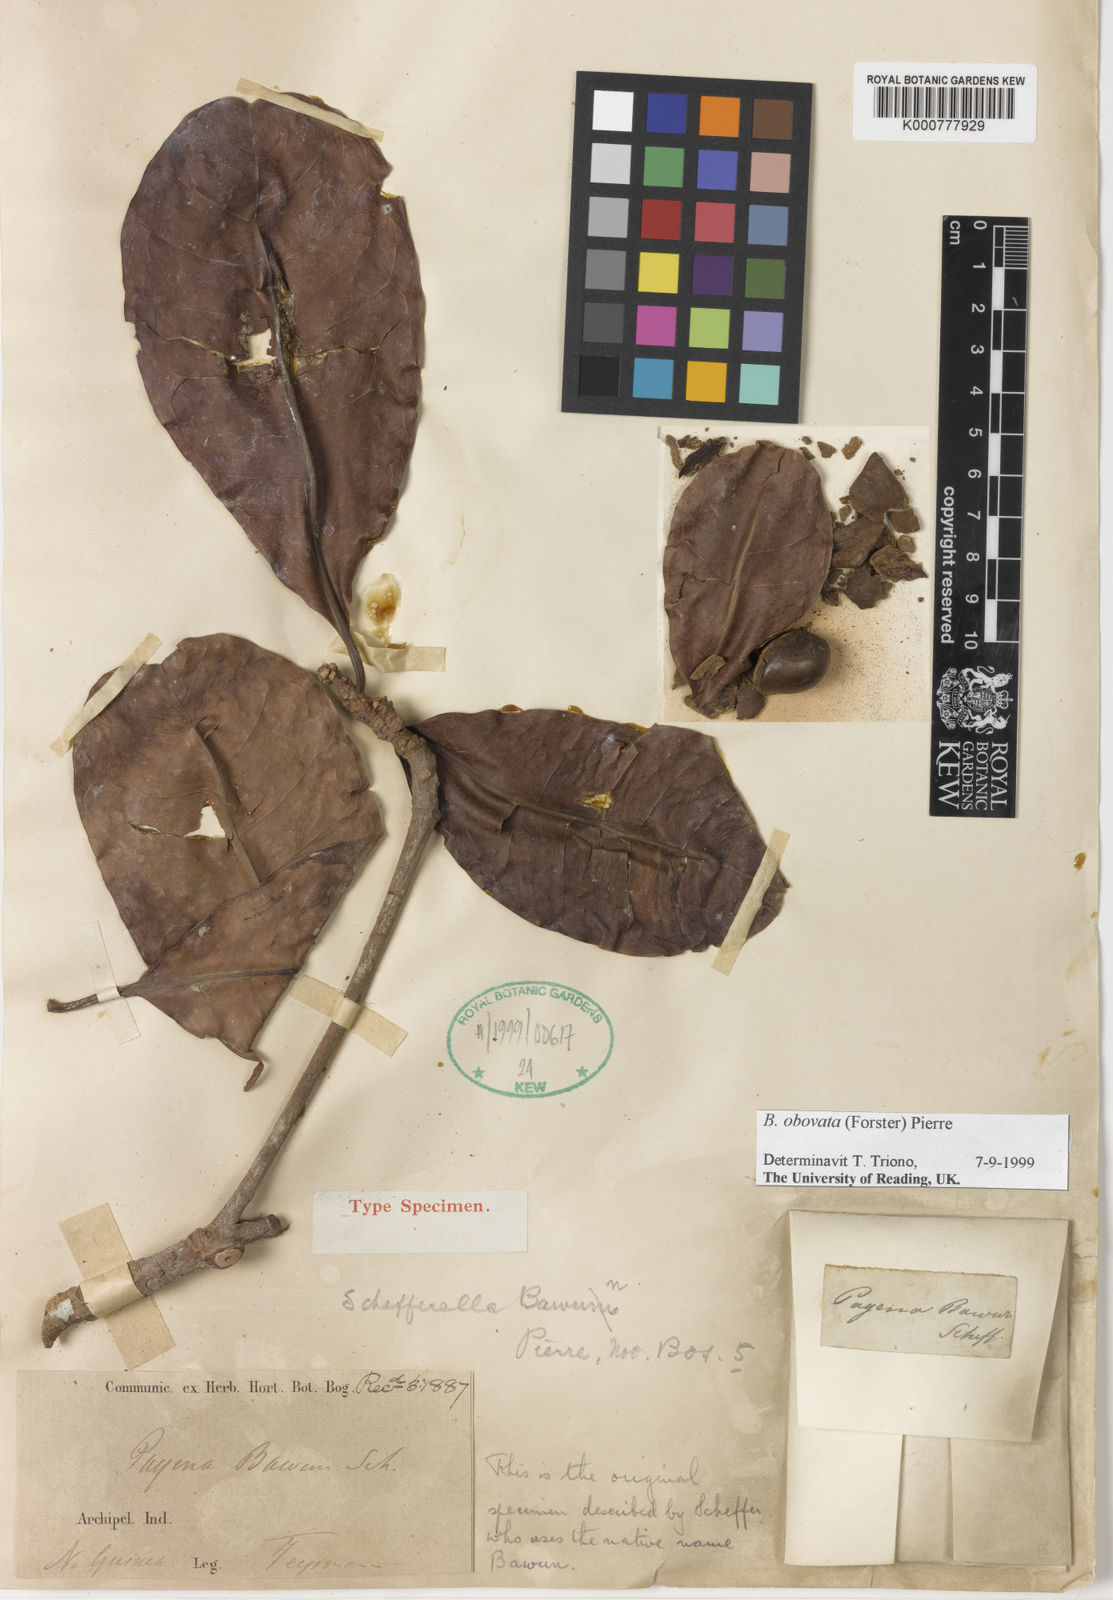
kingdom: Plantae
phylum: Tracheophyta
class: Magnoliopsida
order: Ericales
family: Sapotaceae
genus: Burckella
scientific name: Burckella obovata
